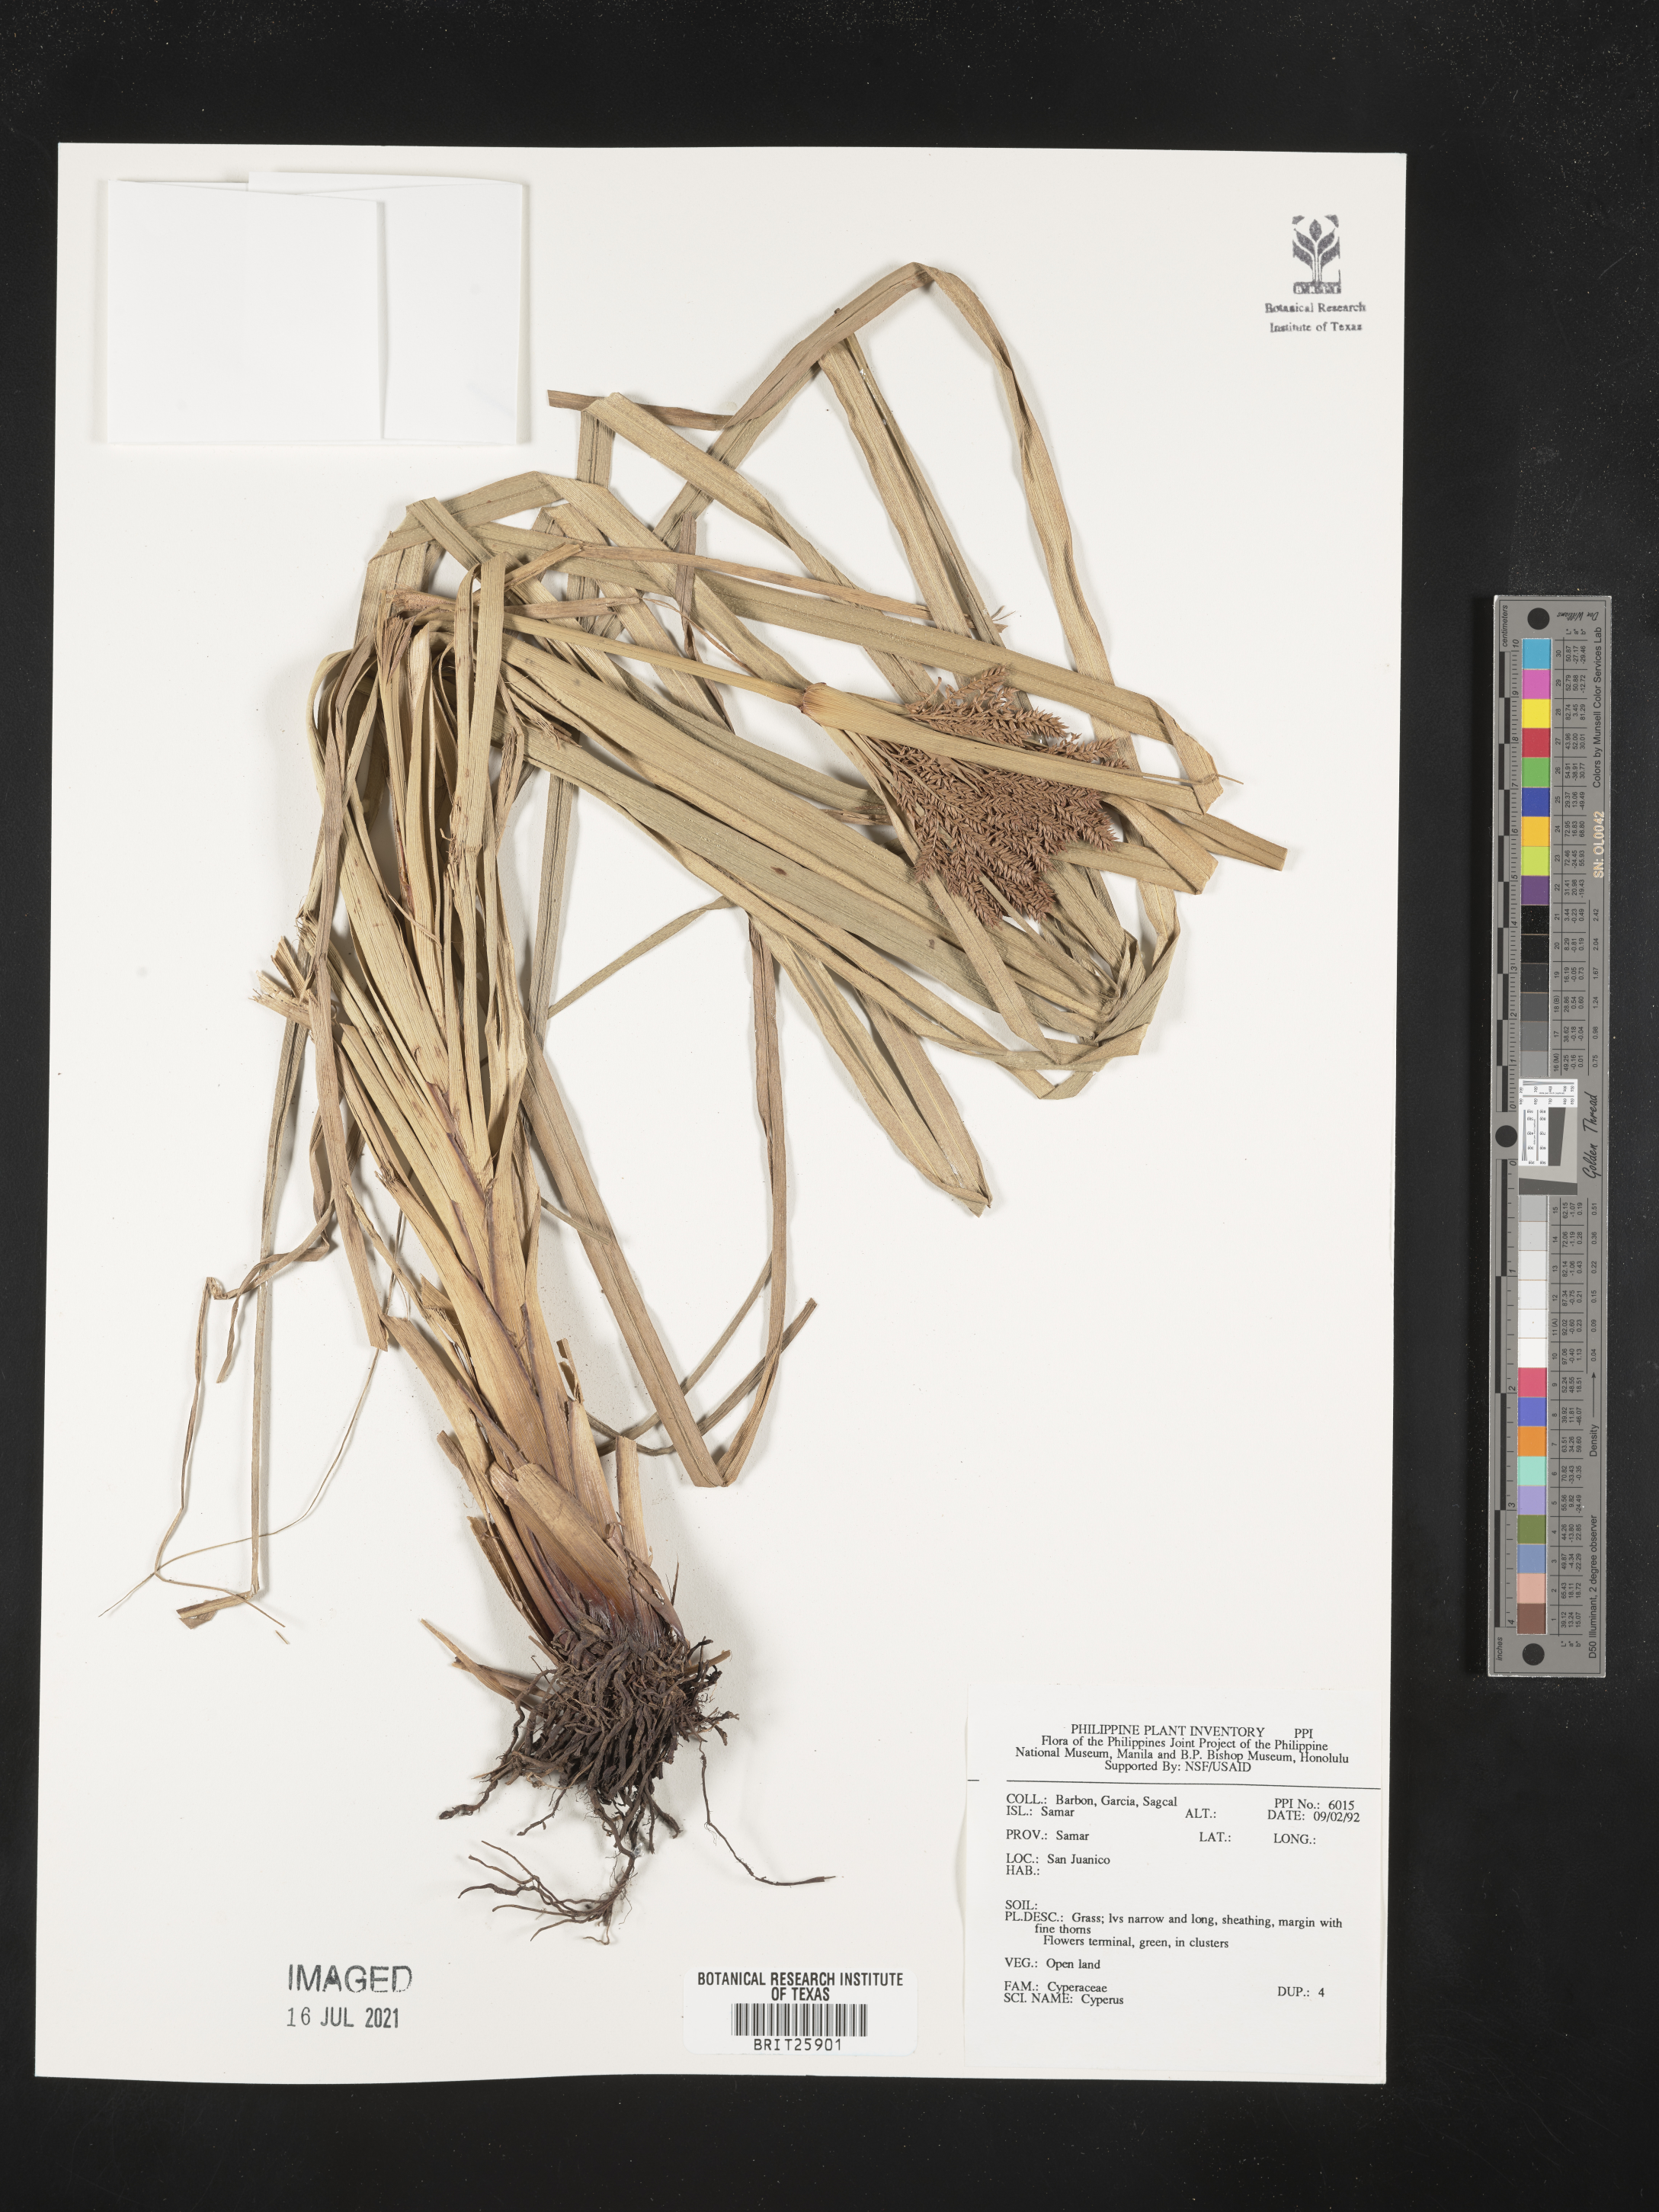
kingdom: Plantae
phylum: Tracheophyta
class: Liliopsida
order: Poales
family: Cyperaceae
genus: Cyperus
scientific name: Cyperus
